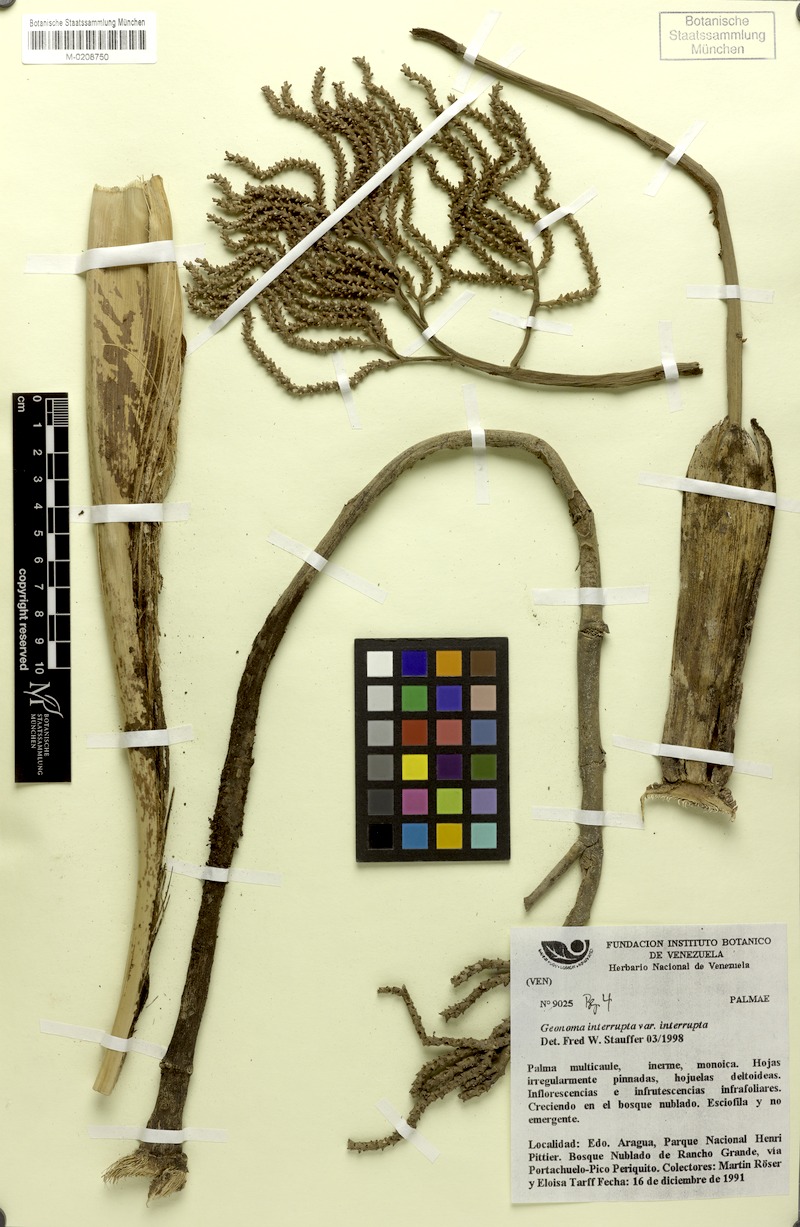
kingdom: Plantae
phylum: Tracheophyta
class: Liliopsida
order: Arecales
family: Arecaceae
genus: Geonoma
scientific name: Geonoma interrupta
